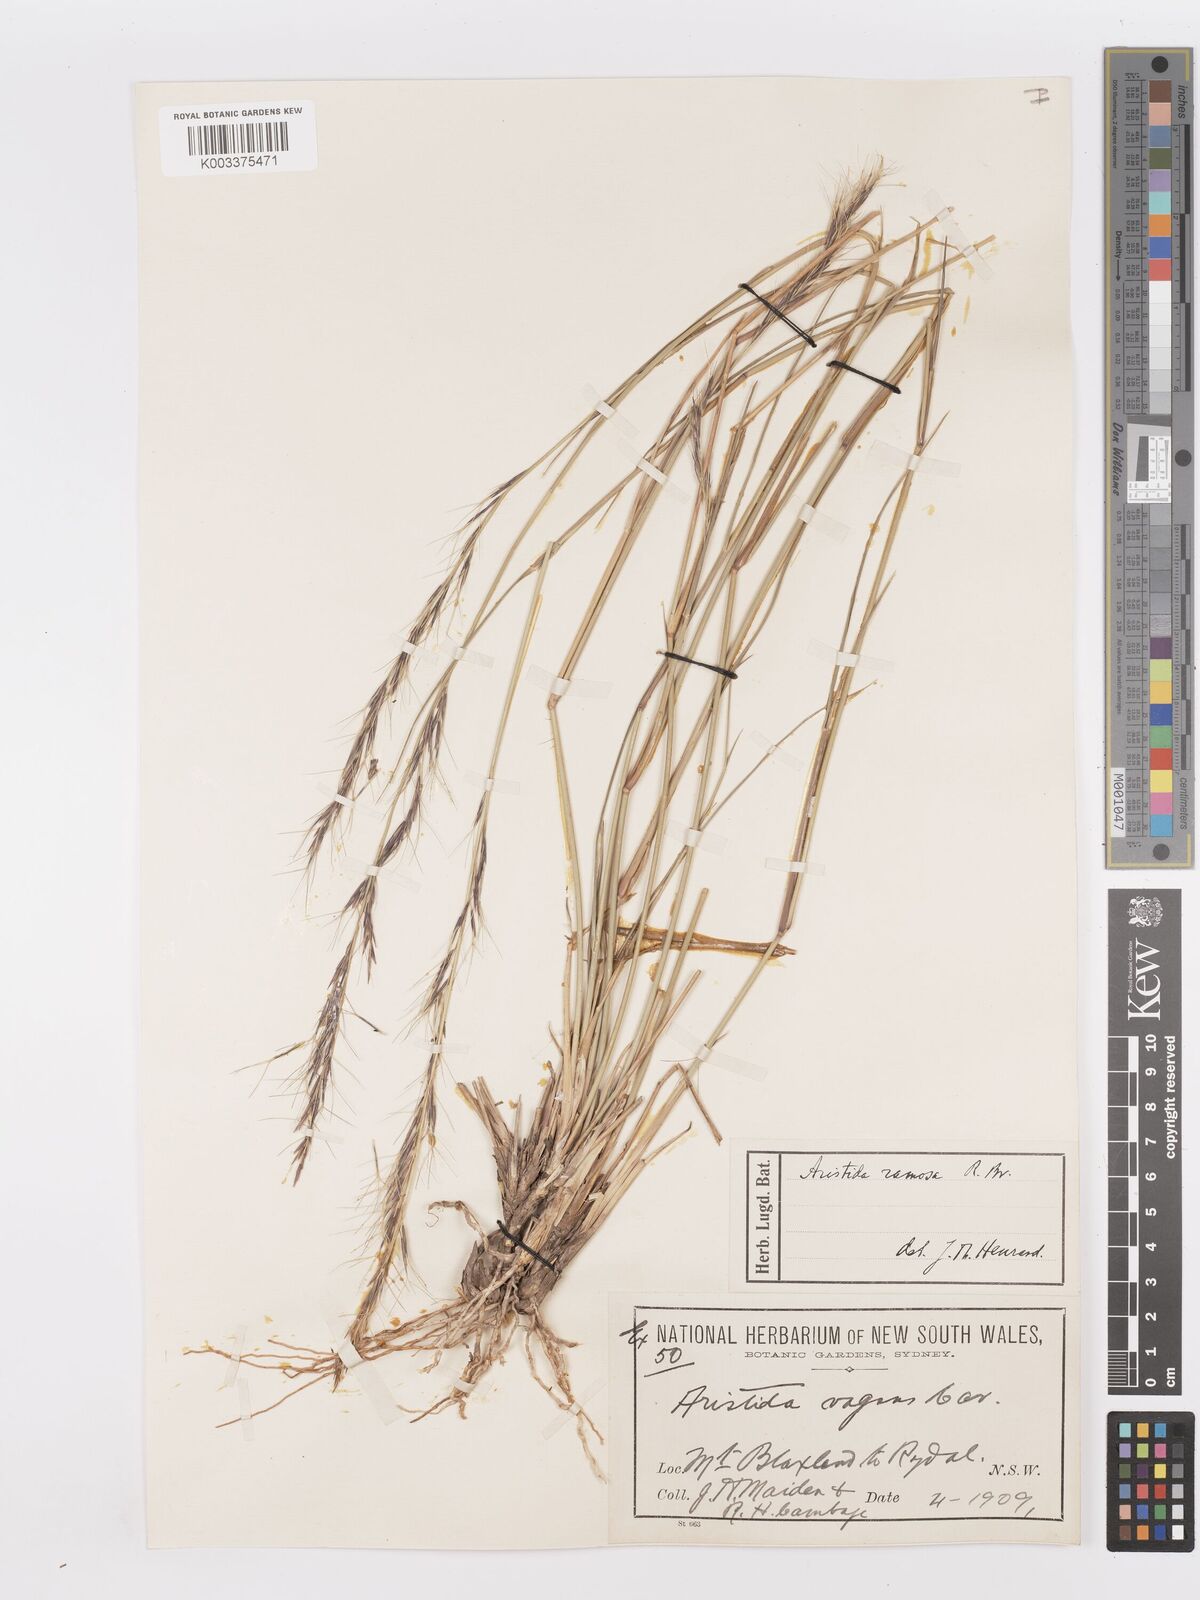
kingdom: Plantae
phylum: Tracheophyta
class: Liliopsida
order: Poales
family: Poaceae
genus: Aristida
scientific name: Aristida ramosa
